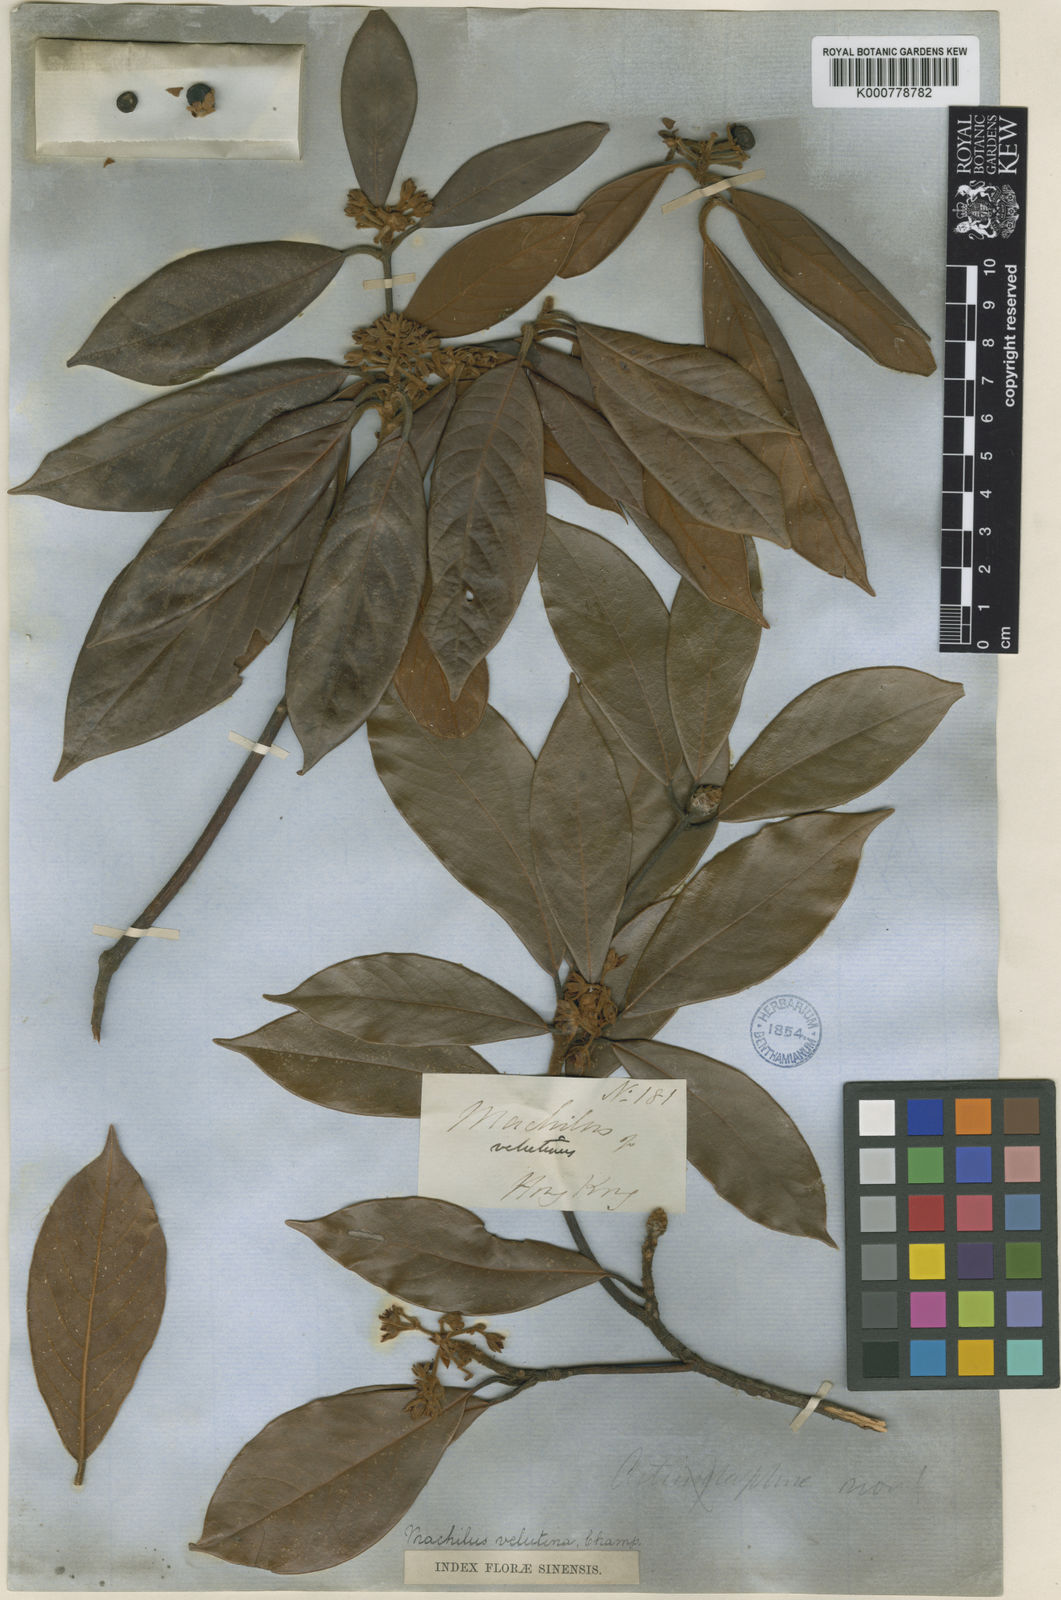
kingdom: Plantae
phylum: Tracheophyta
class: Magnoliopsida
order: Laurales
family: Lauraceae
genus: Actinodaphne
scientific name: Actinodaphne pedunculata
